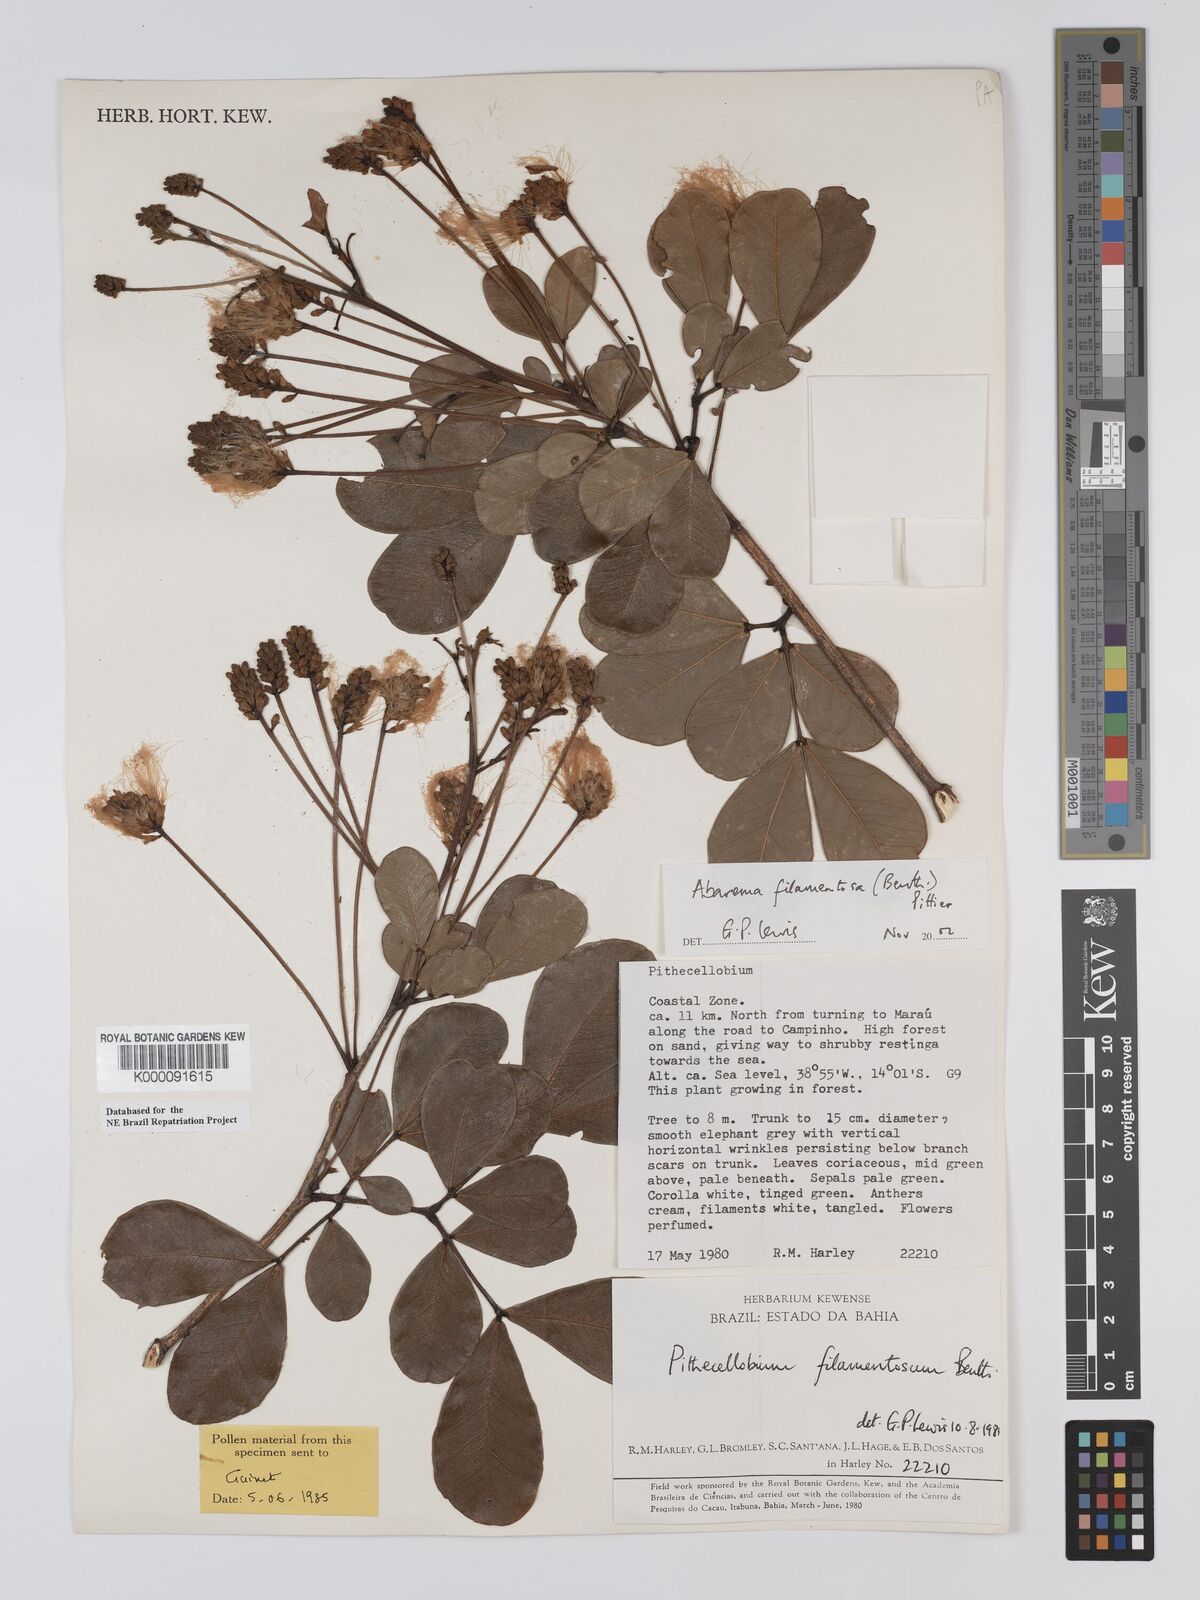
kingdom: Plantae
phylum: Tracheophyta
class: Magnoliopsida
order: Fabales
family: Fabaceae
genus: Jupunba
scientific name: Jupunba filamentosa
